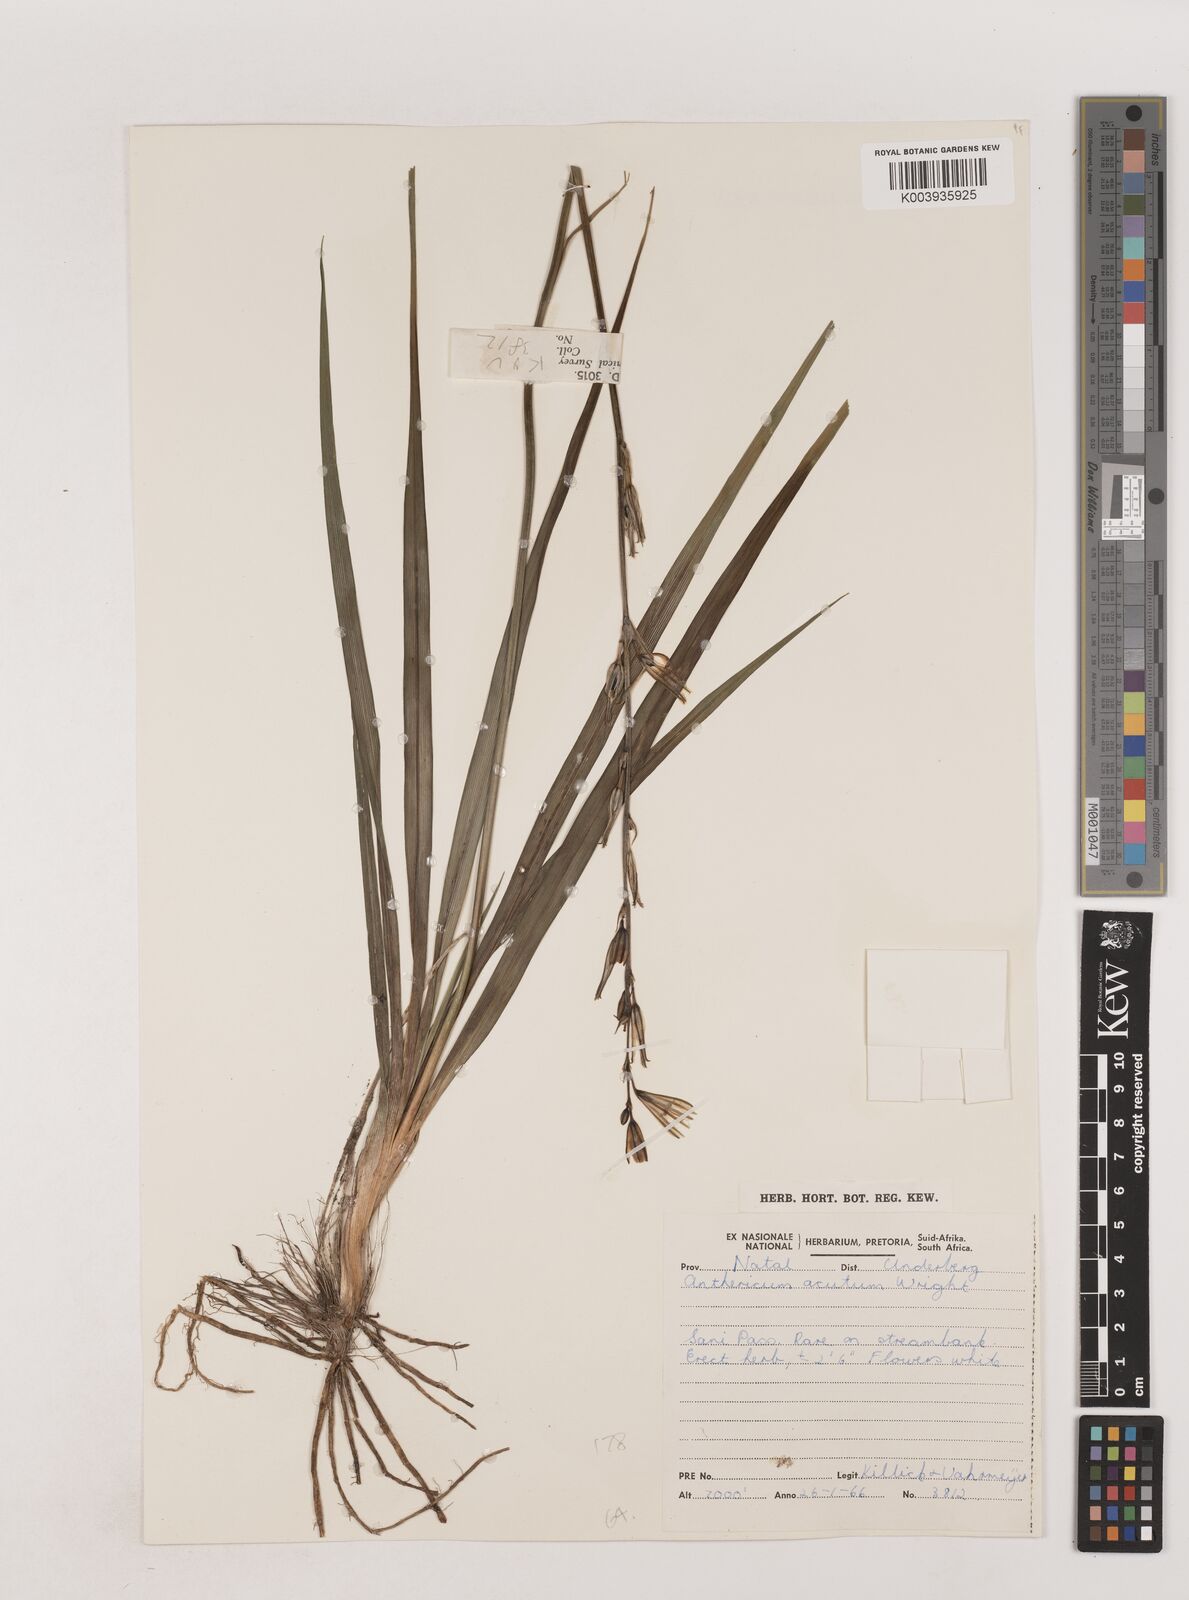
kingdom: Plantae
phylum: Tracheophyta
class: Liliopsida
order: Asparagales
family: Asparagaceae
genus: Chlorophytum
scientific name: Chlorophytum acutum
